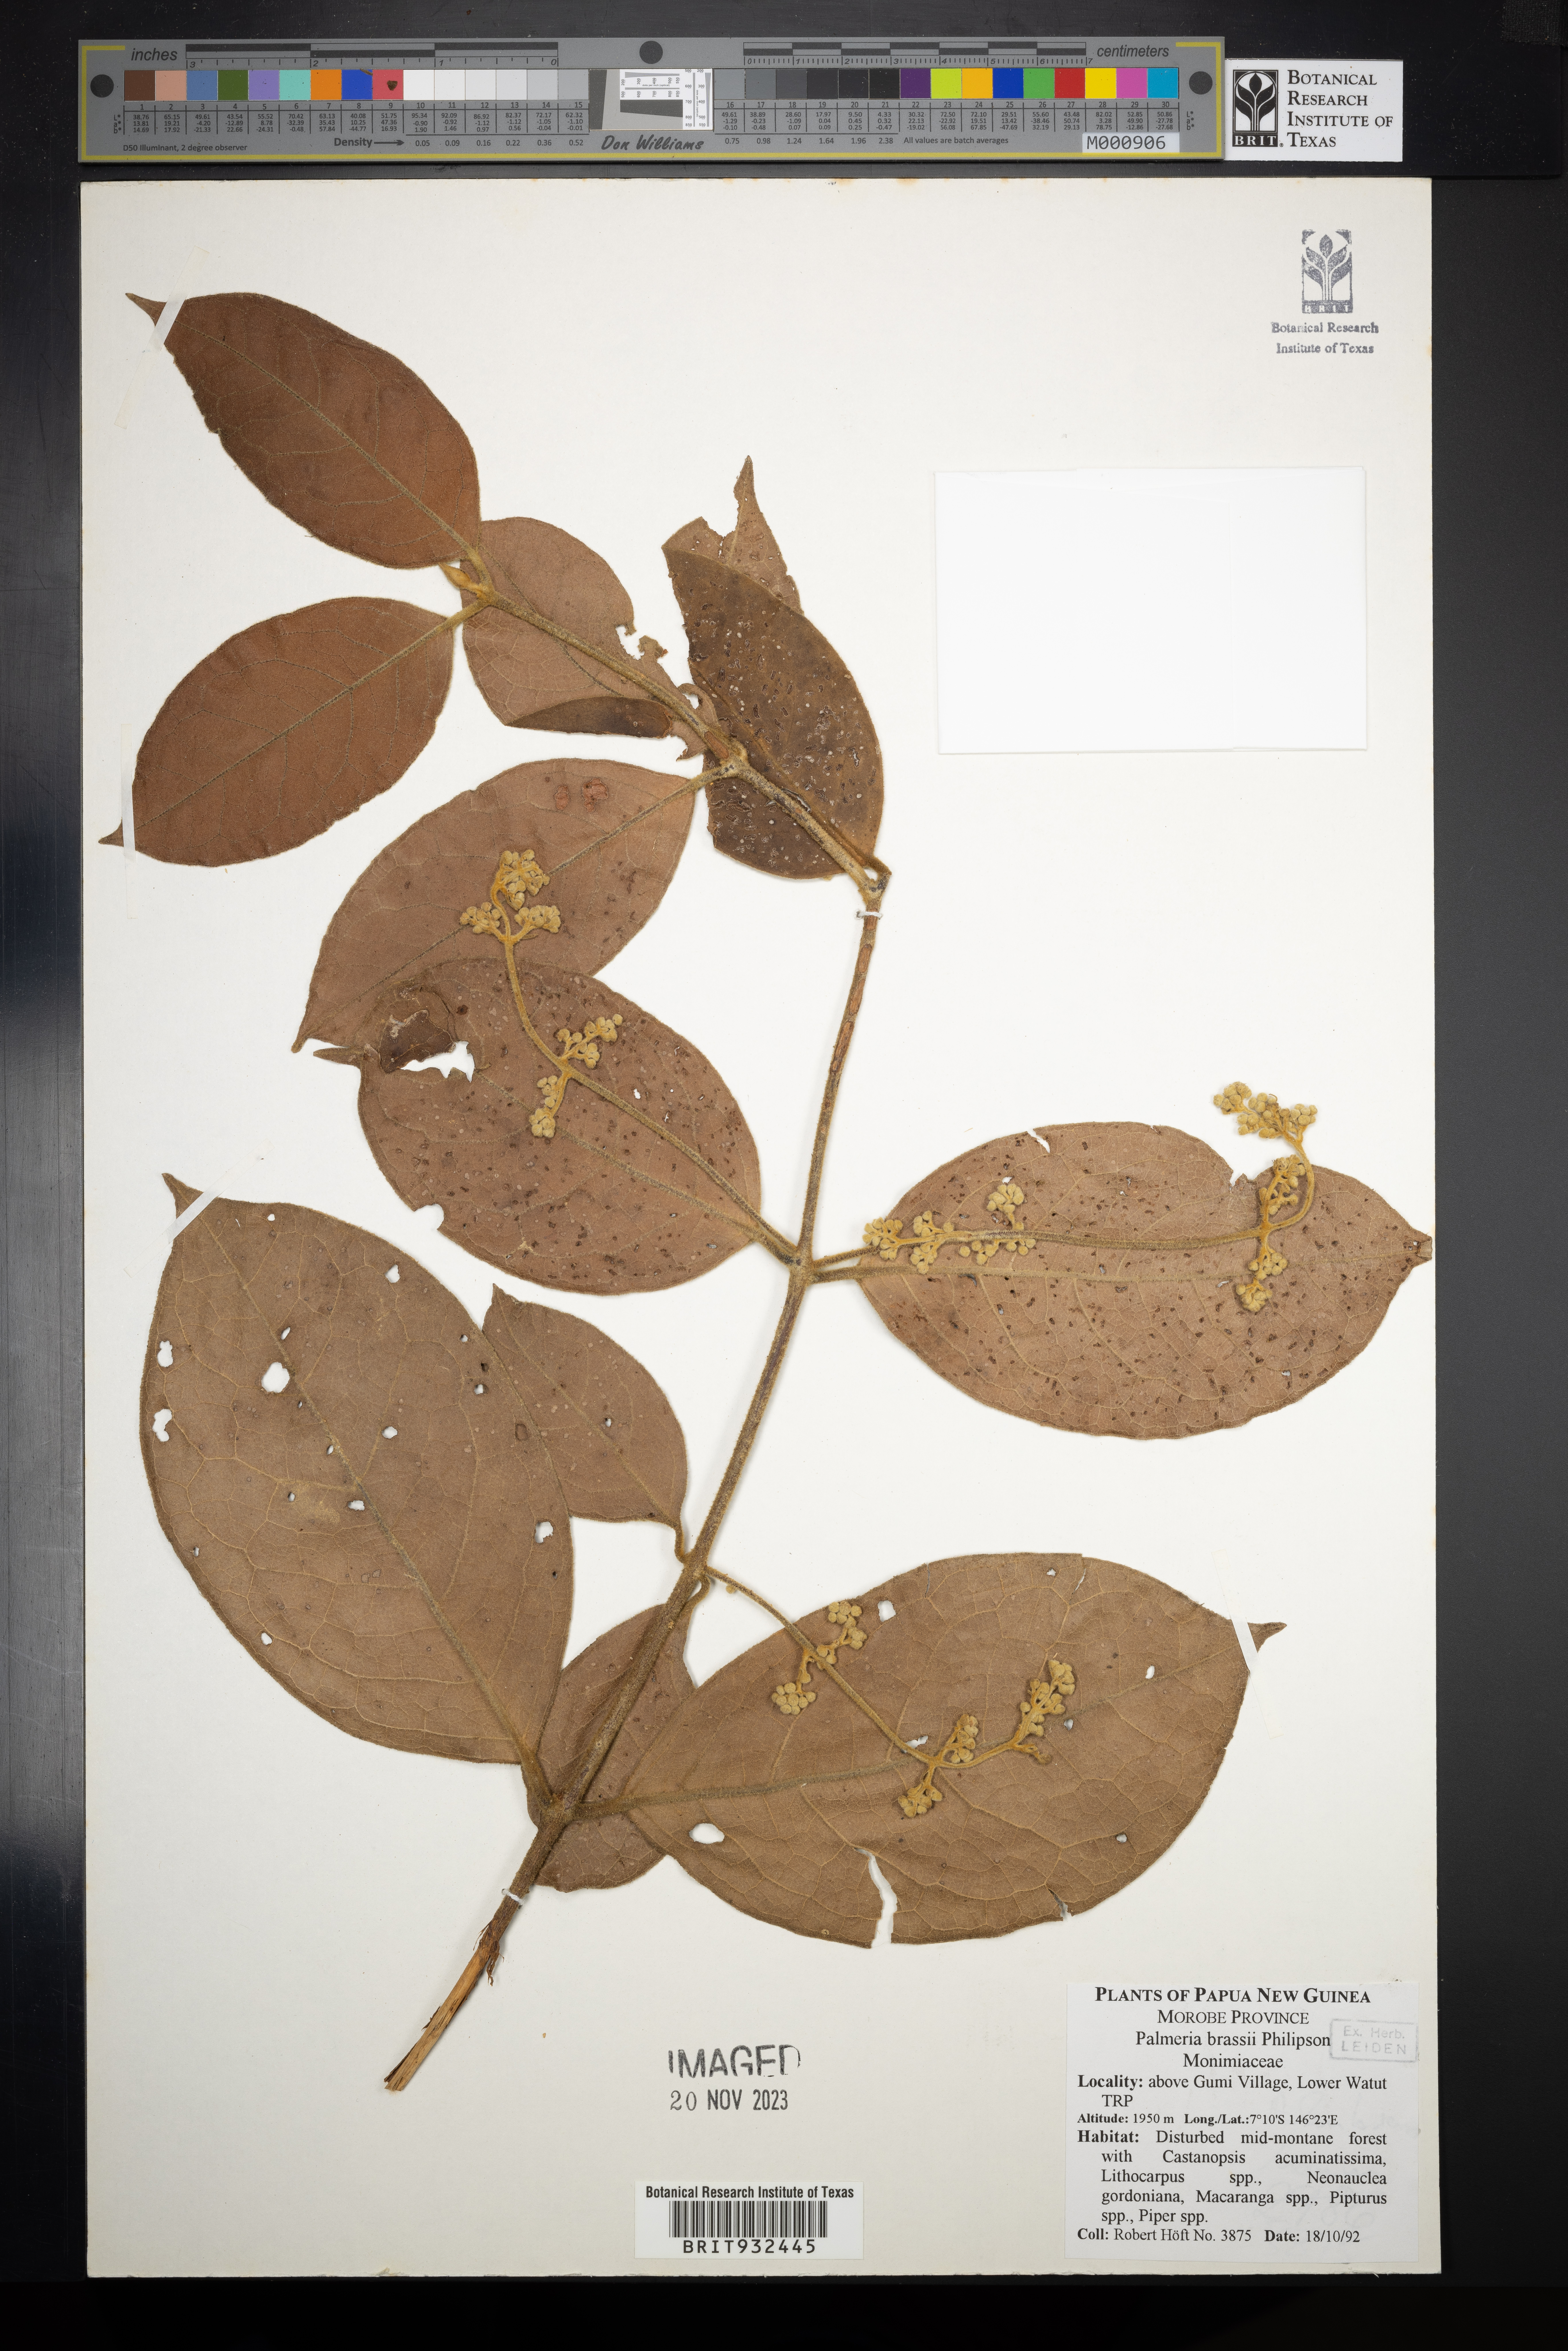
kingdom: Plantae
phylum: Tracheophyta
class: Magnoliopsida
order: Laurales
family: Monimiaceae
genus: Palmeria
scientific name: Palmeria
